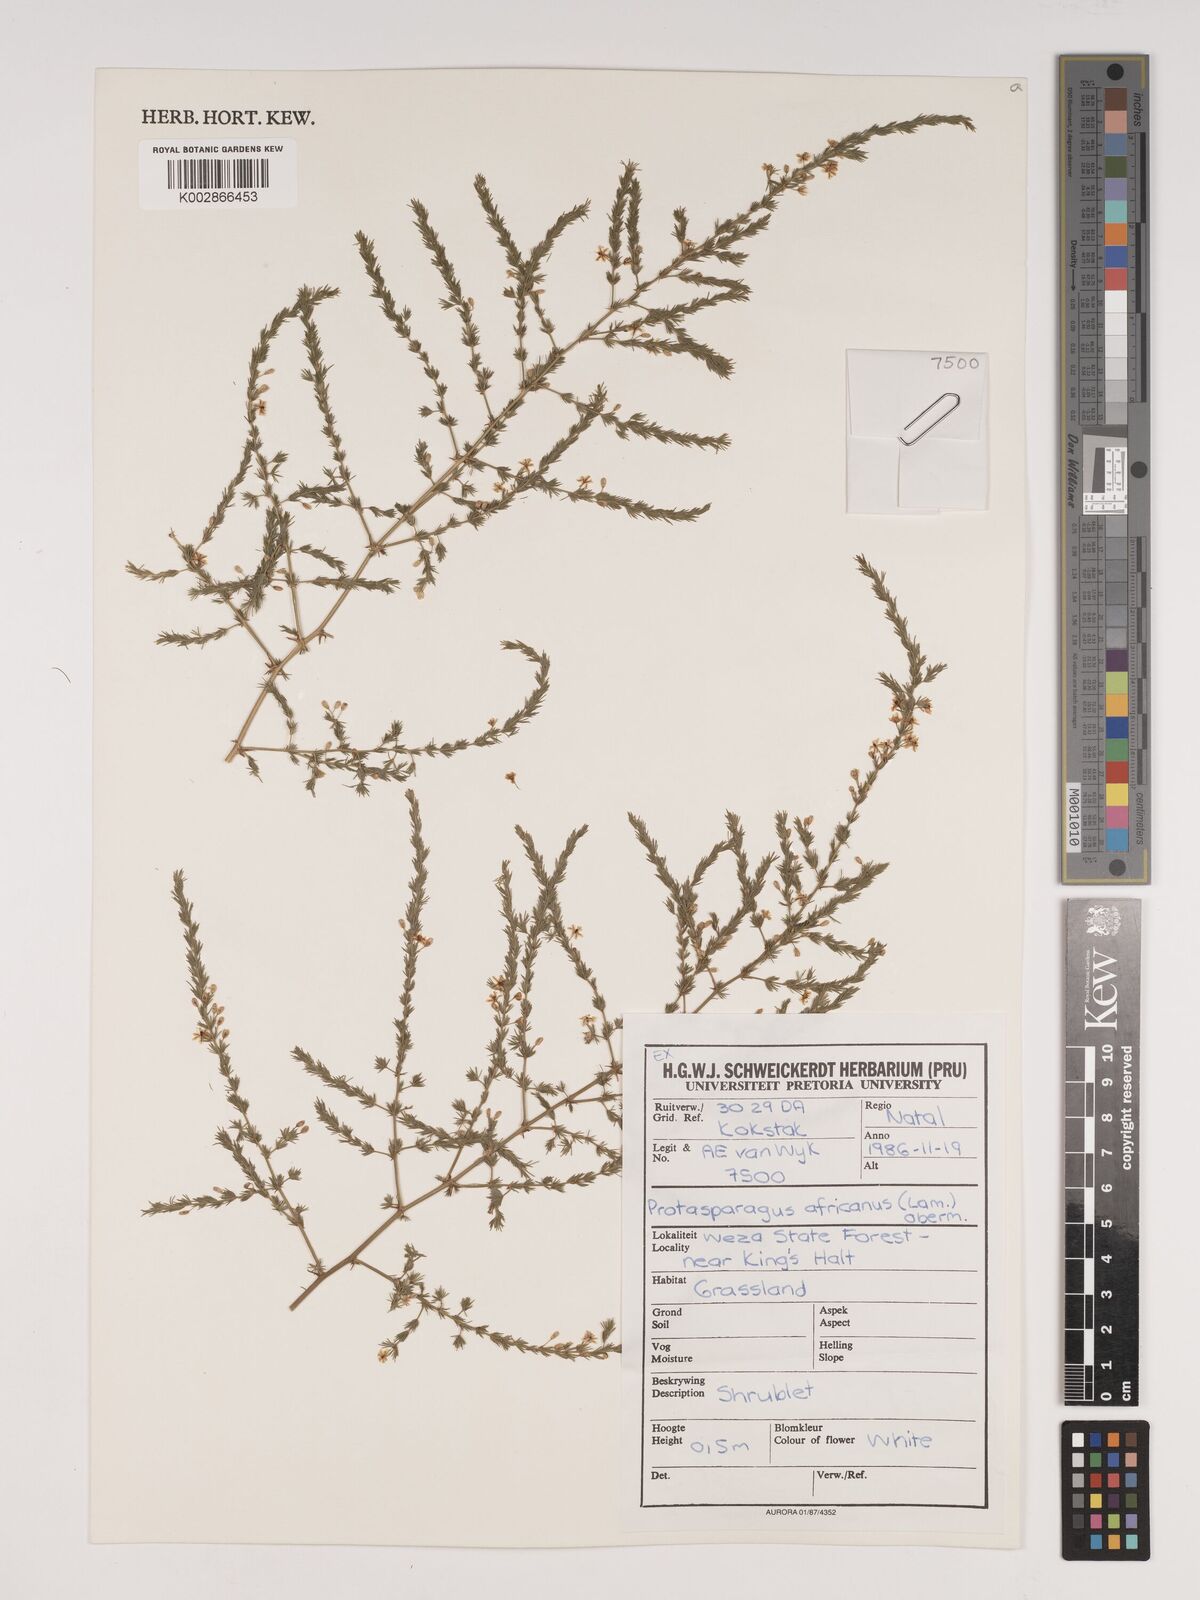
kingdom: Plantae
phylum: Tracheophyta
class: Liliopsida
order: Asparagales
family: Asparagaceae
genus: Asparagus
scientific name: Asparagus africanus
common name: Asparagus-fern
